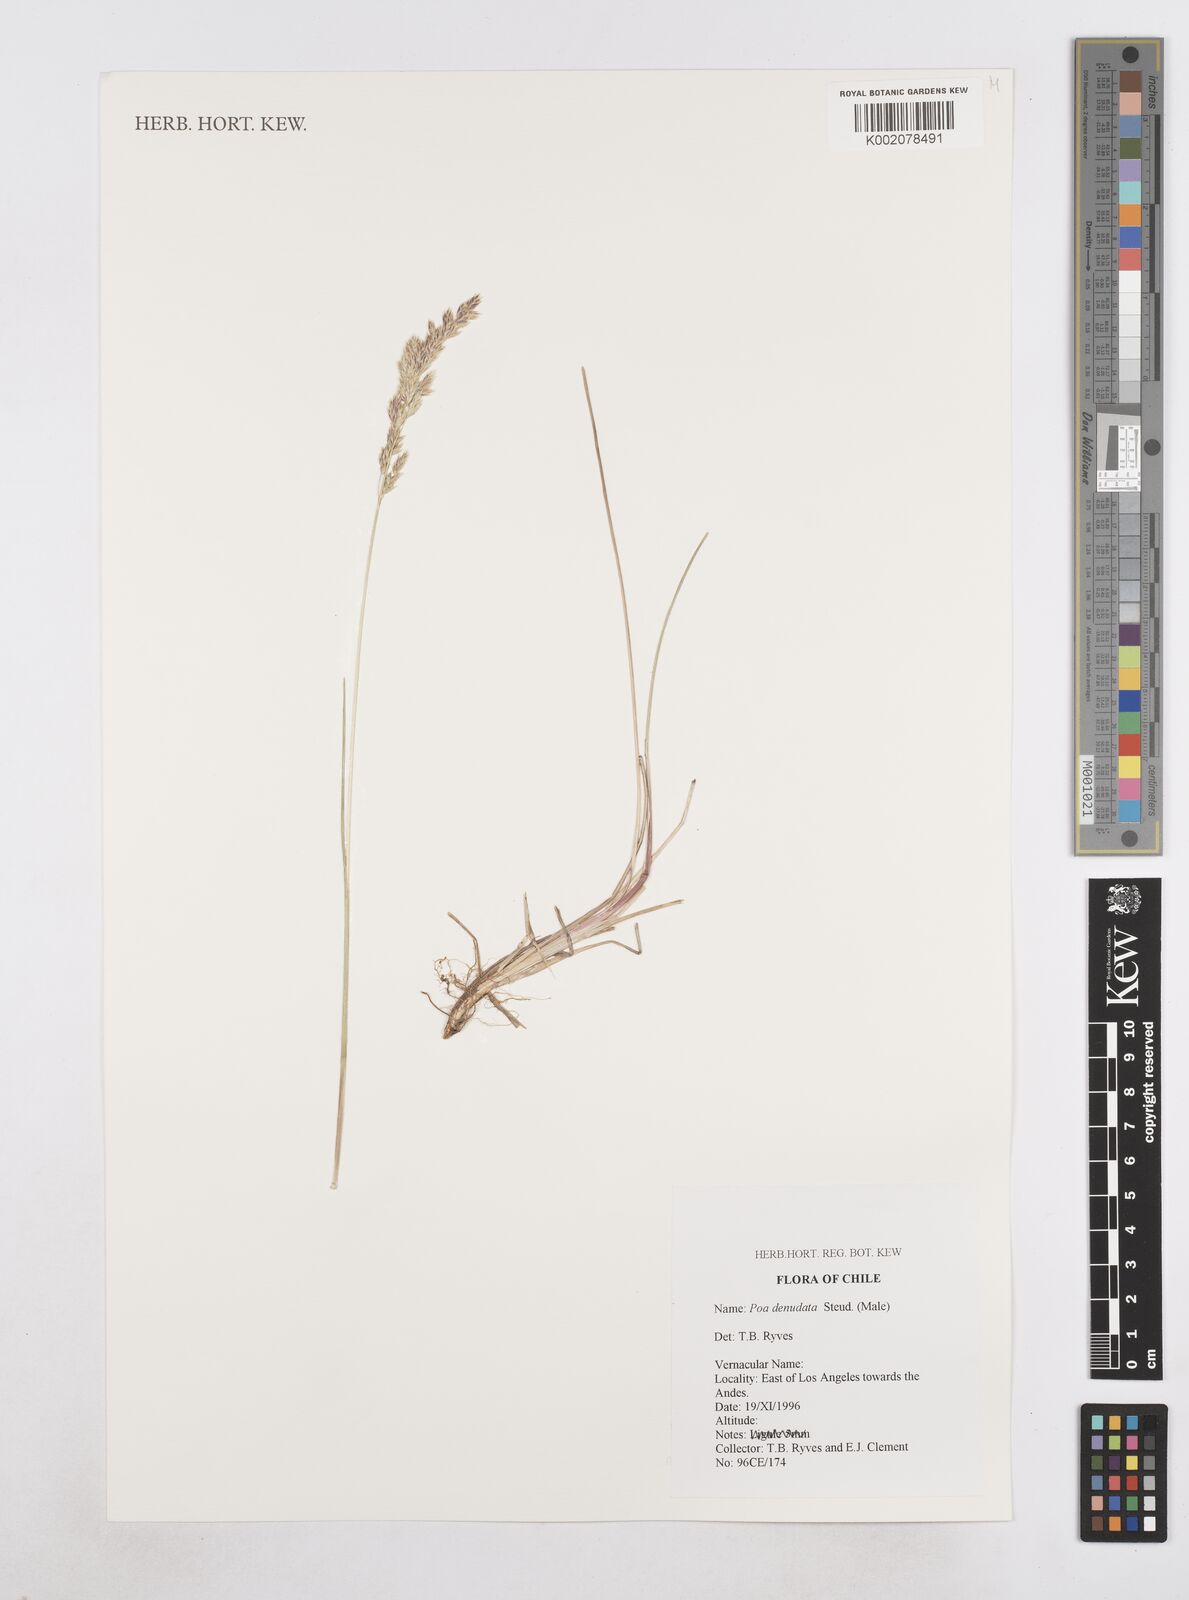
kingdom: Plantae
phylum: Tracheophyta
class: Liliopsida
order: Poales
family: Poaceae
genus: Poa
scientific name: Poa denudata
